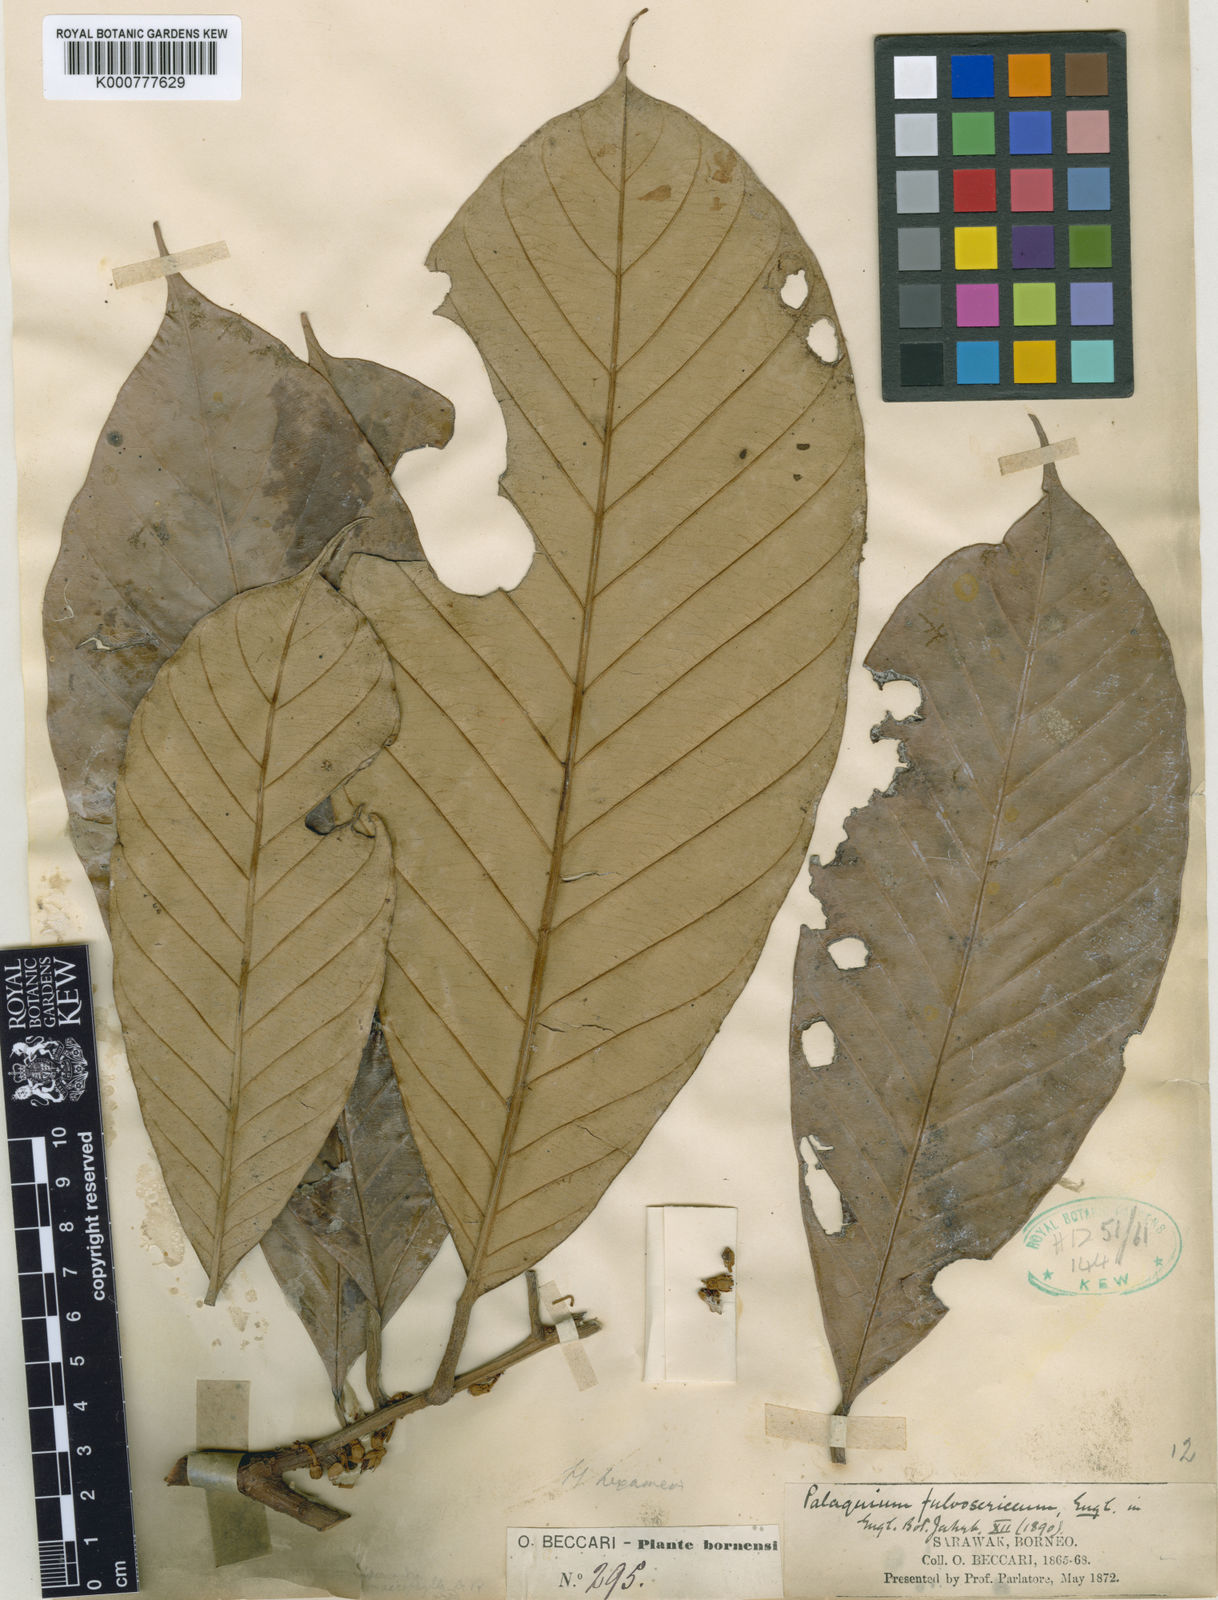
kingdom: Plantae
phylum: Tracheophyta
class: Magnoliopsida
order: Ericales
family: Sapotaceae
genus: Palaquium
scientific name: Palaquium
